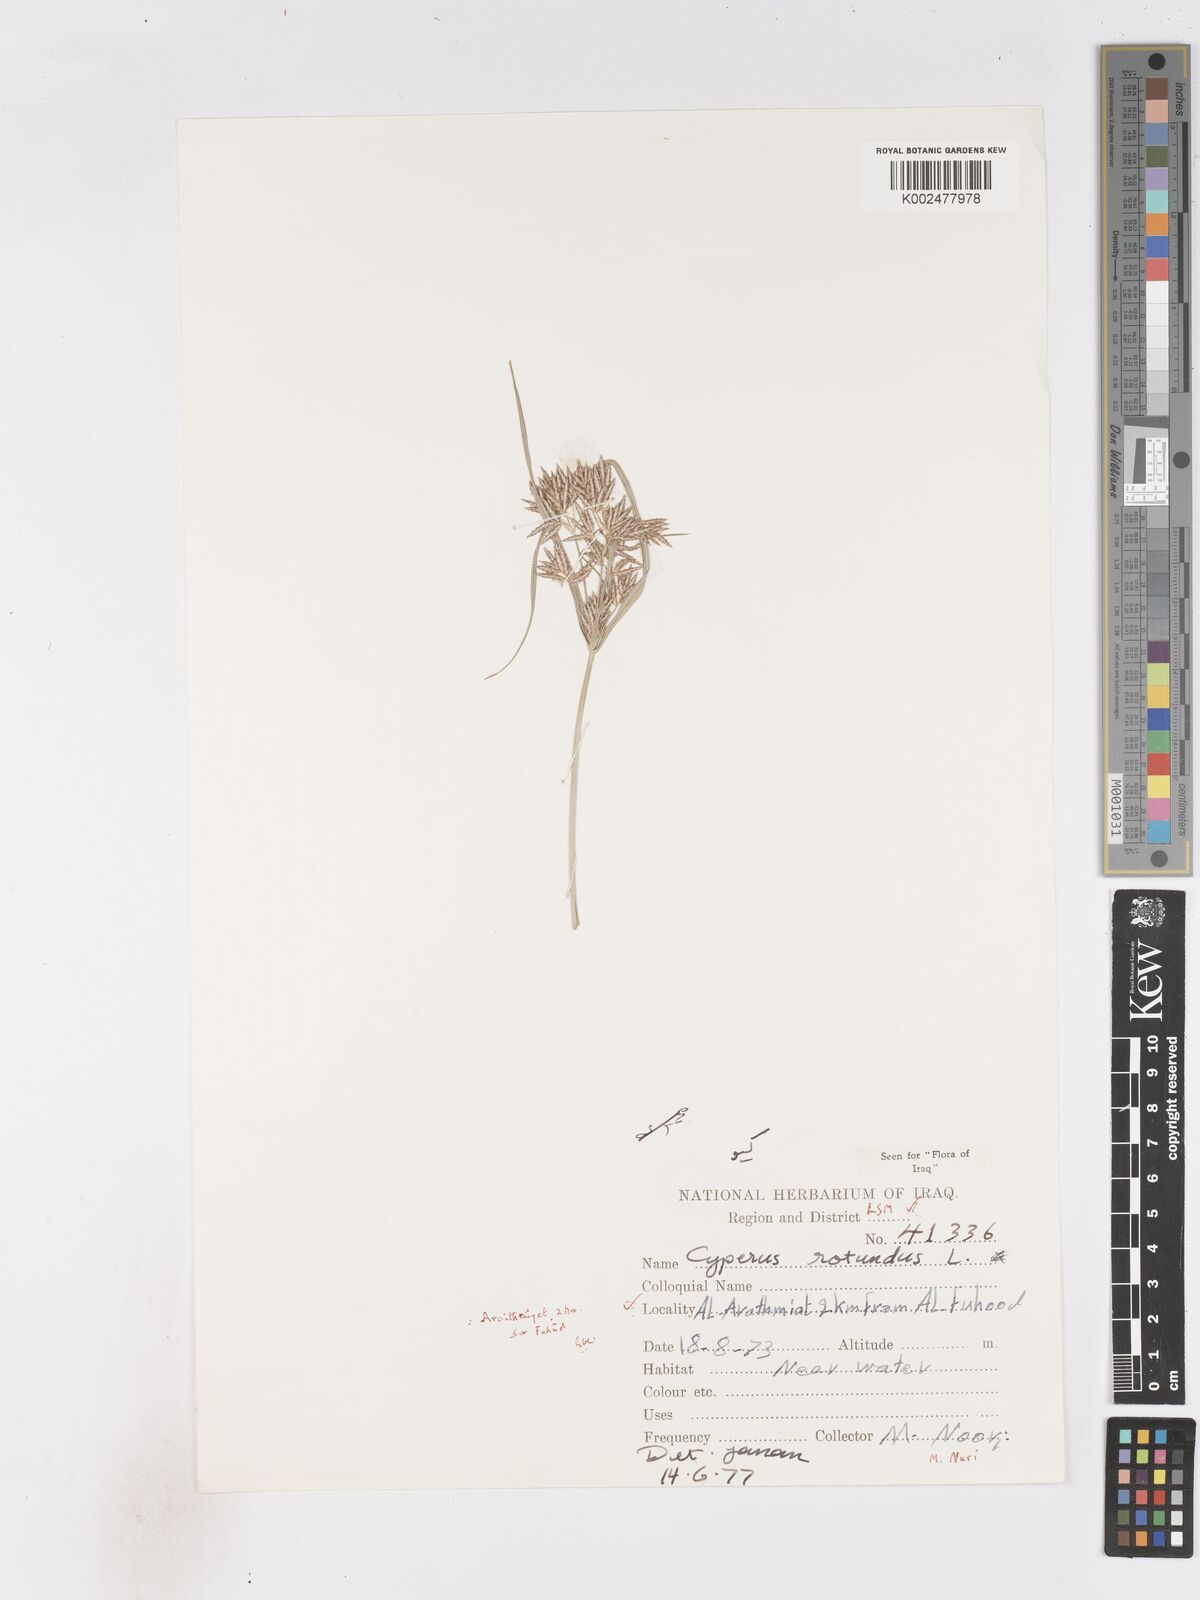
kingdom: Plantae
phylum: Tracheophyta
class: Liliopsida
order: Poales
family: Cyperaceae
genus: Cyperus
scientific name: Cyperus rotundus
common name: Nutgrass
